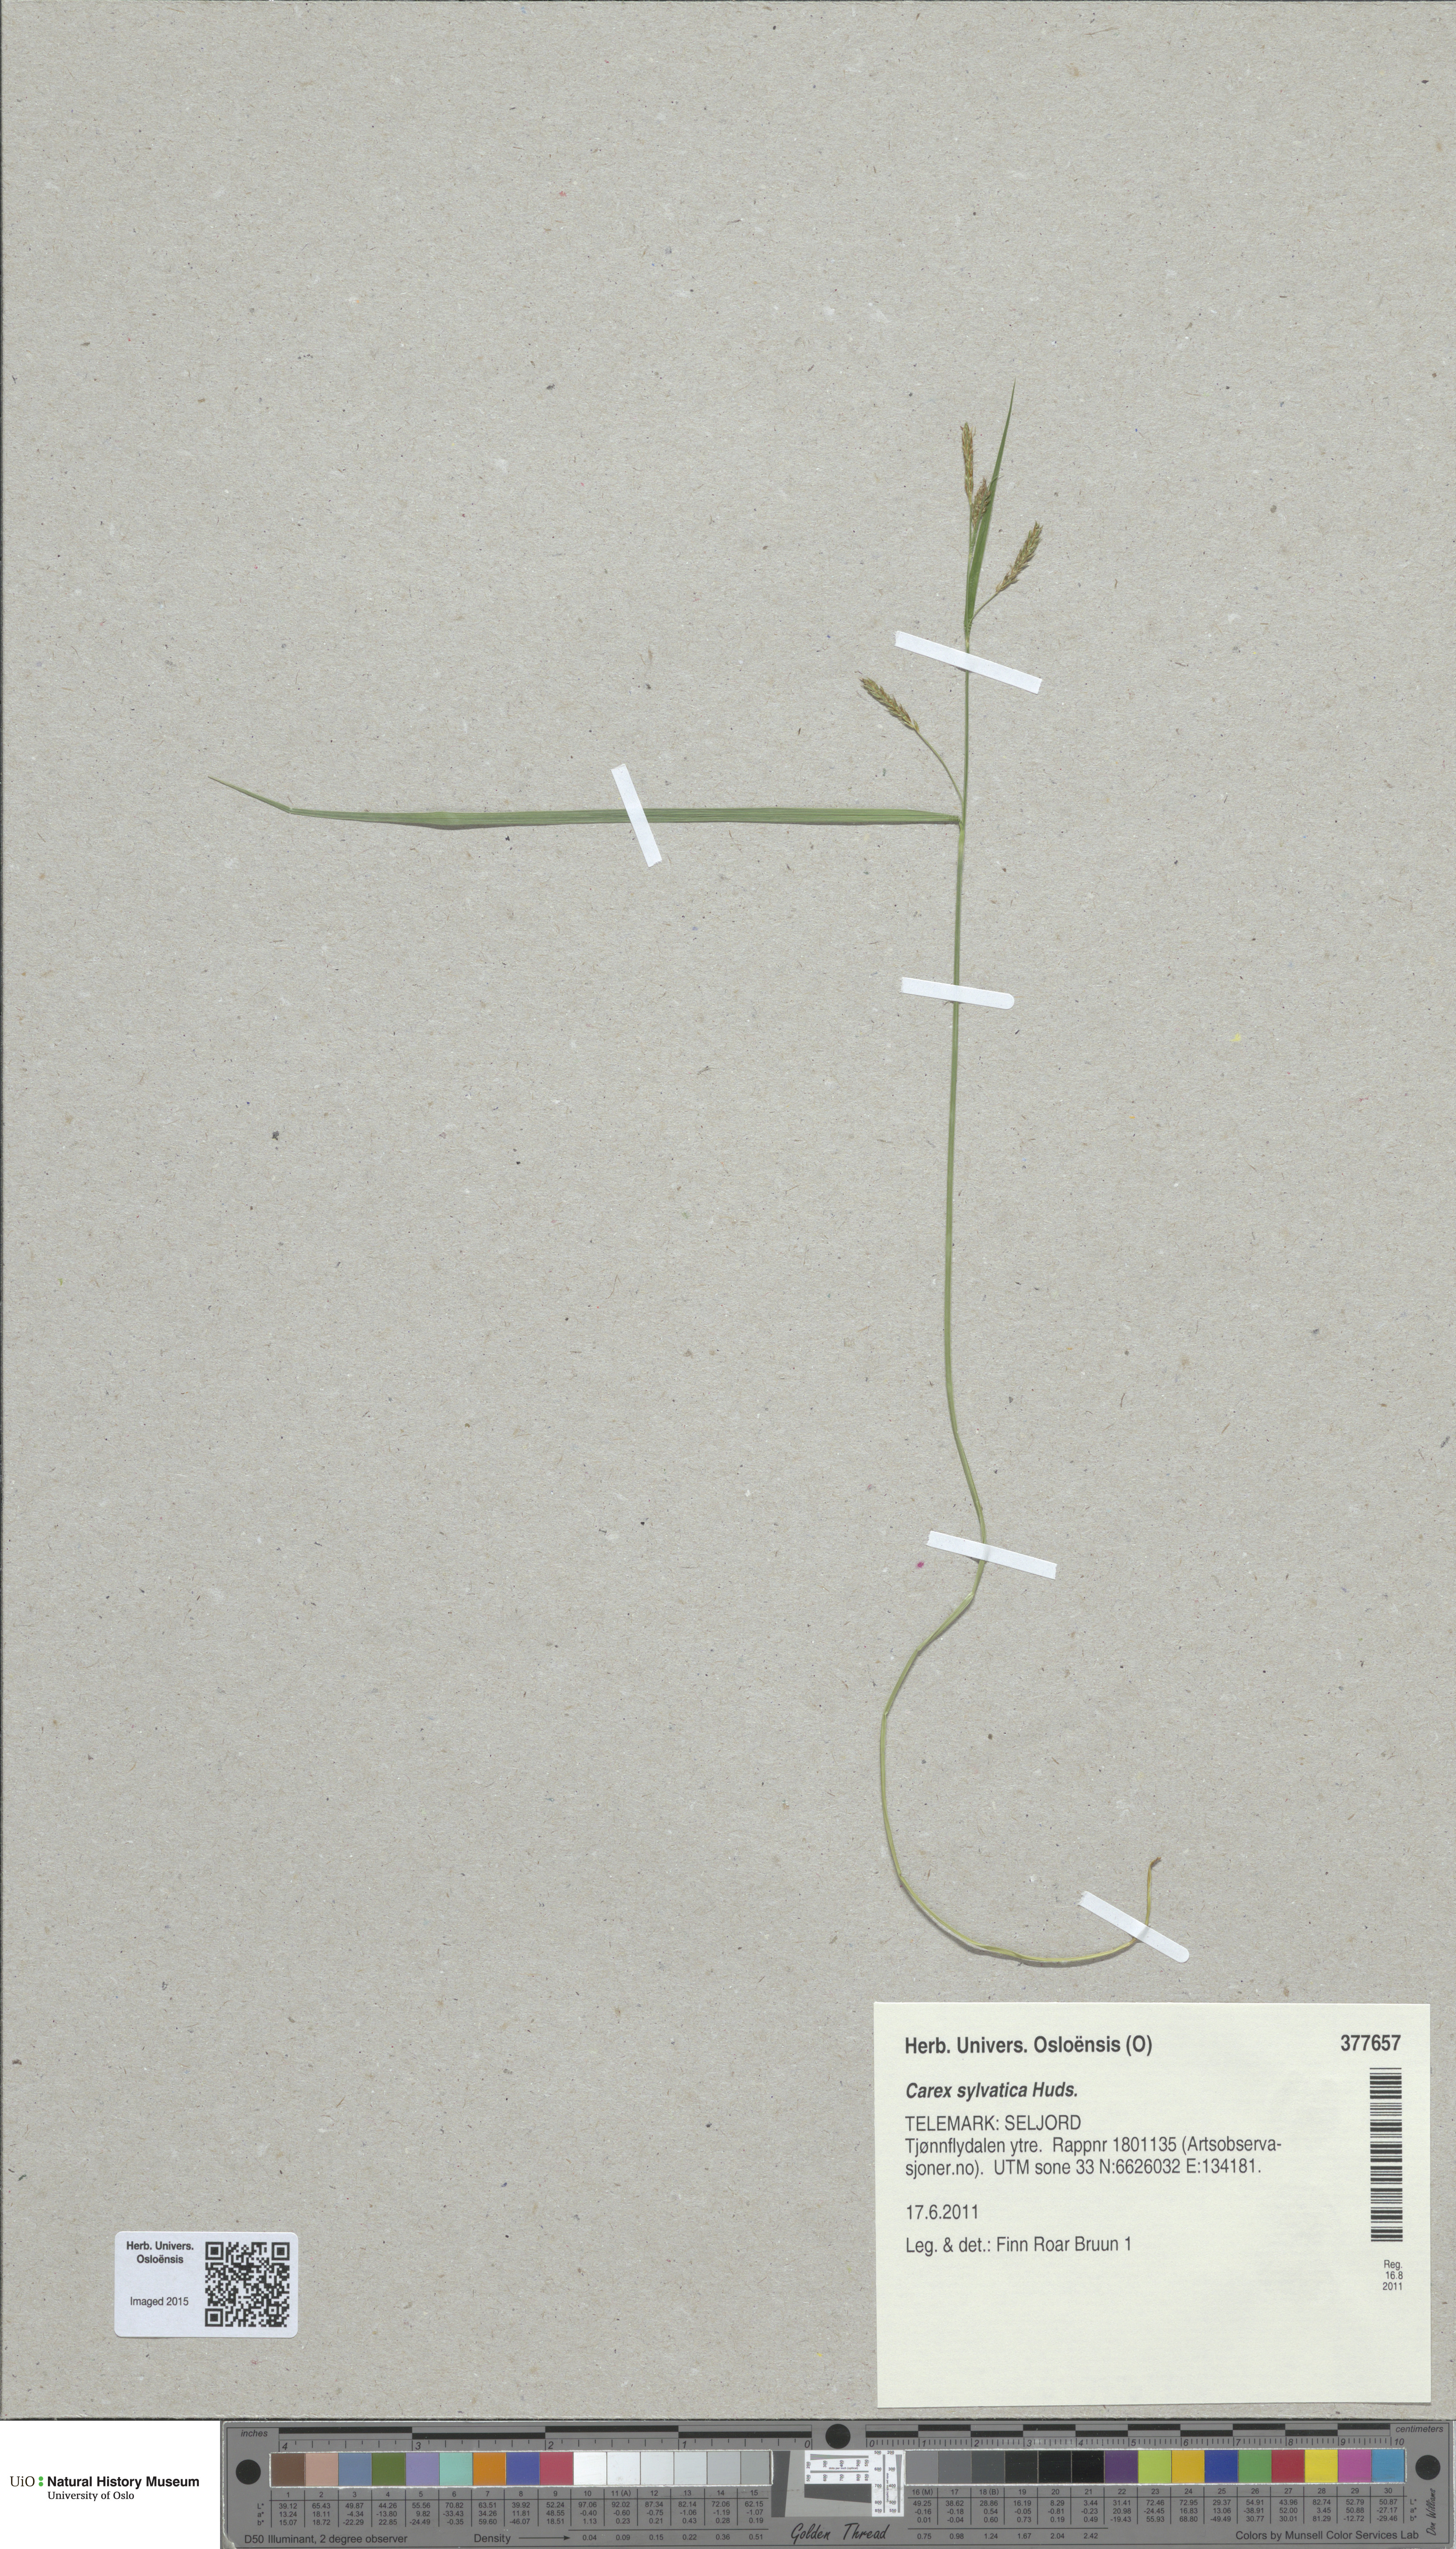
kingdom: Plantae
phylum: Tracheophyta
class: Liliopsida
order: Poales
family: Cyperaceae
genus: Carex
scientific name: Carex sylvatica
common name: Wood-sedge
